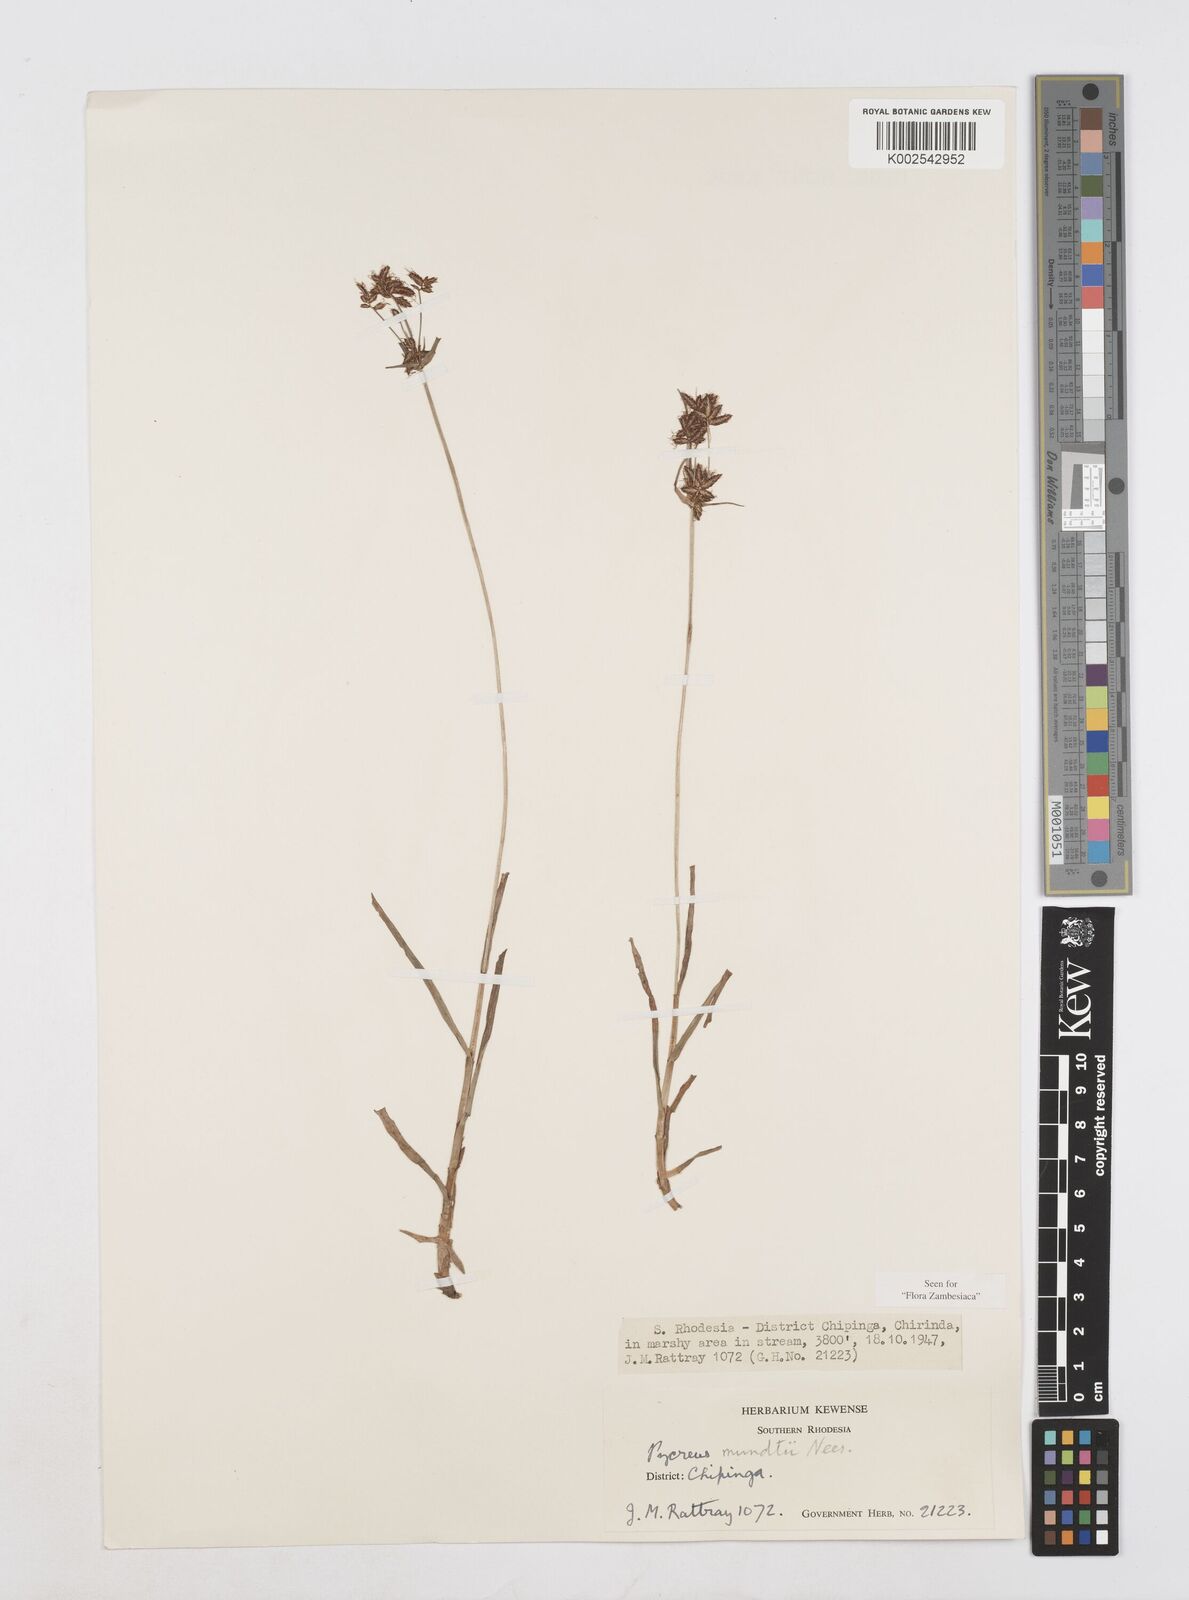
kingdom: Plantae
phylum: Tracheophyta
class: Liliopsida
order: Poales
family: Cyperaceae
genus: Cyperus
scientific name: Cyperus mundii
